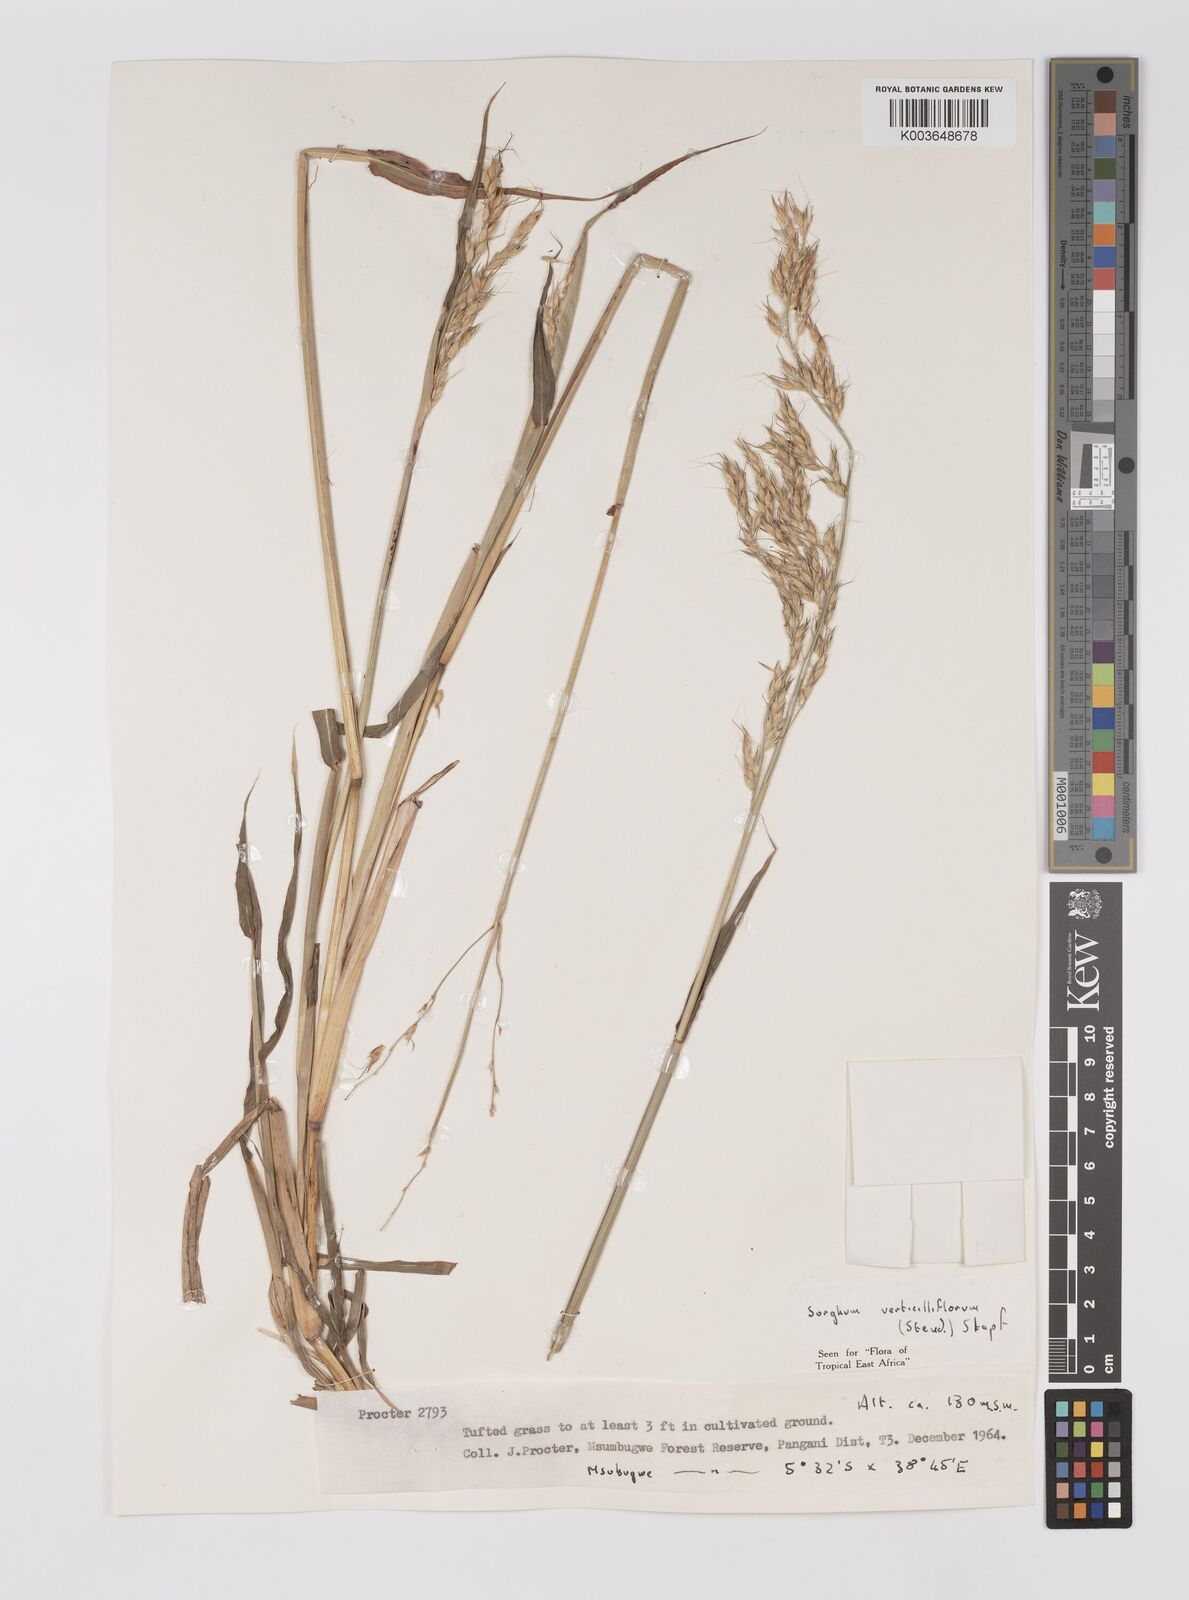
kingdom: Plantae
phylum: Tracheophyta
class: Liliopsida
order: Poales
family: Poaceae
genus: Sorghum
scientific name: Sorghum arundinaceum
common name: Sorghum
